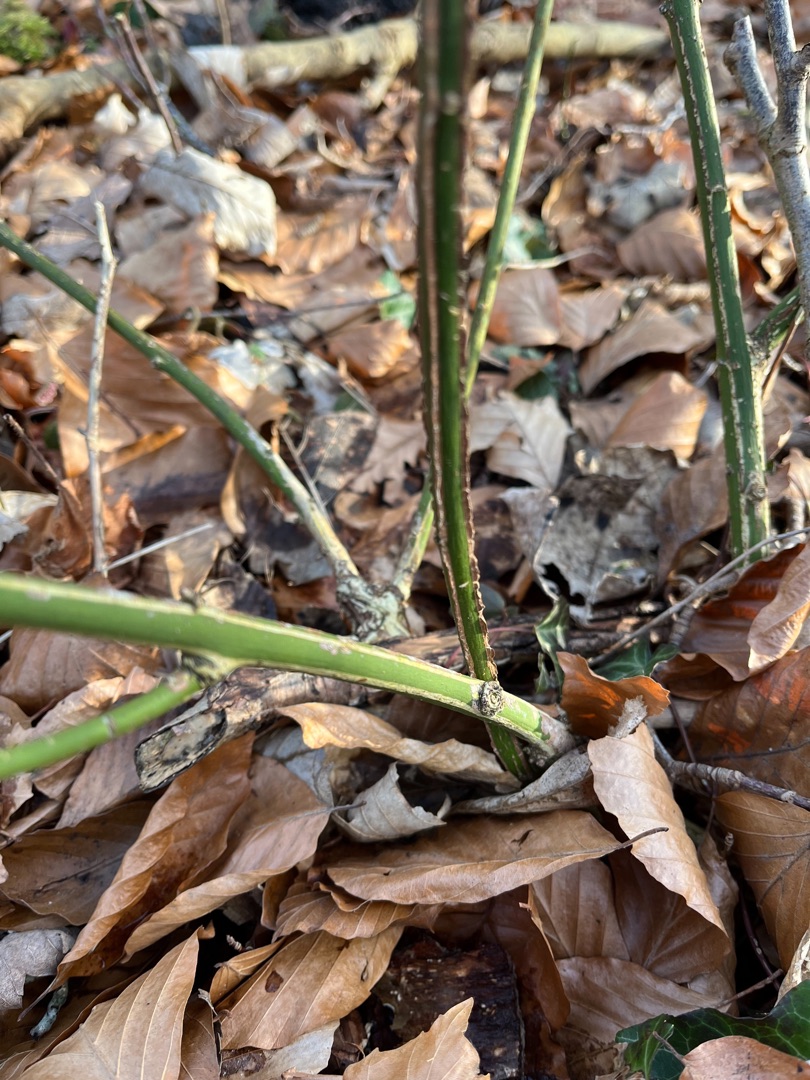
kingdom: Plantae
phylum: Tracheophyta
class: Magnoliopsida
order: Celastrales
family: Celastraceae
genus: Euonymus
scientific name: Euonymus europaeus
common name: Benved
